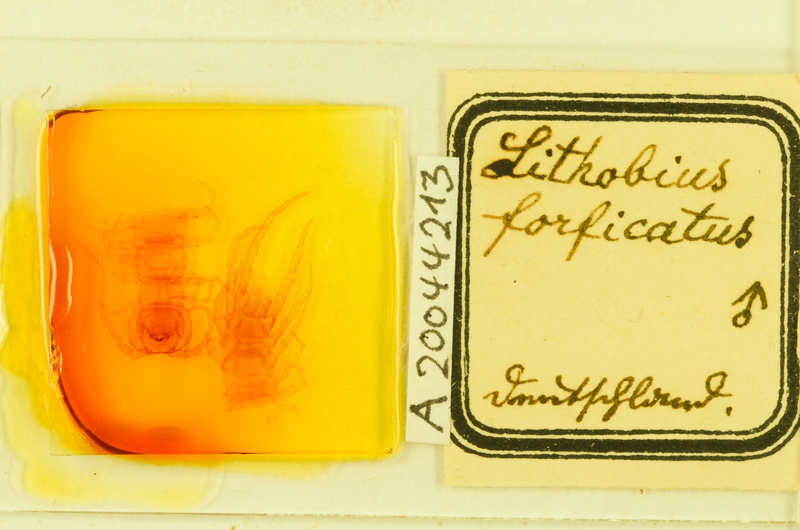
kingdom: Animalia
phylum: Arthropoda
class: Chilopoda
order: Lithobiomorpha
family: Lithobiidae
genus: Lithobius
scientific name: Lithobius forficatus
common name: Centipede
